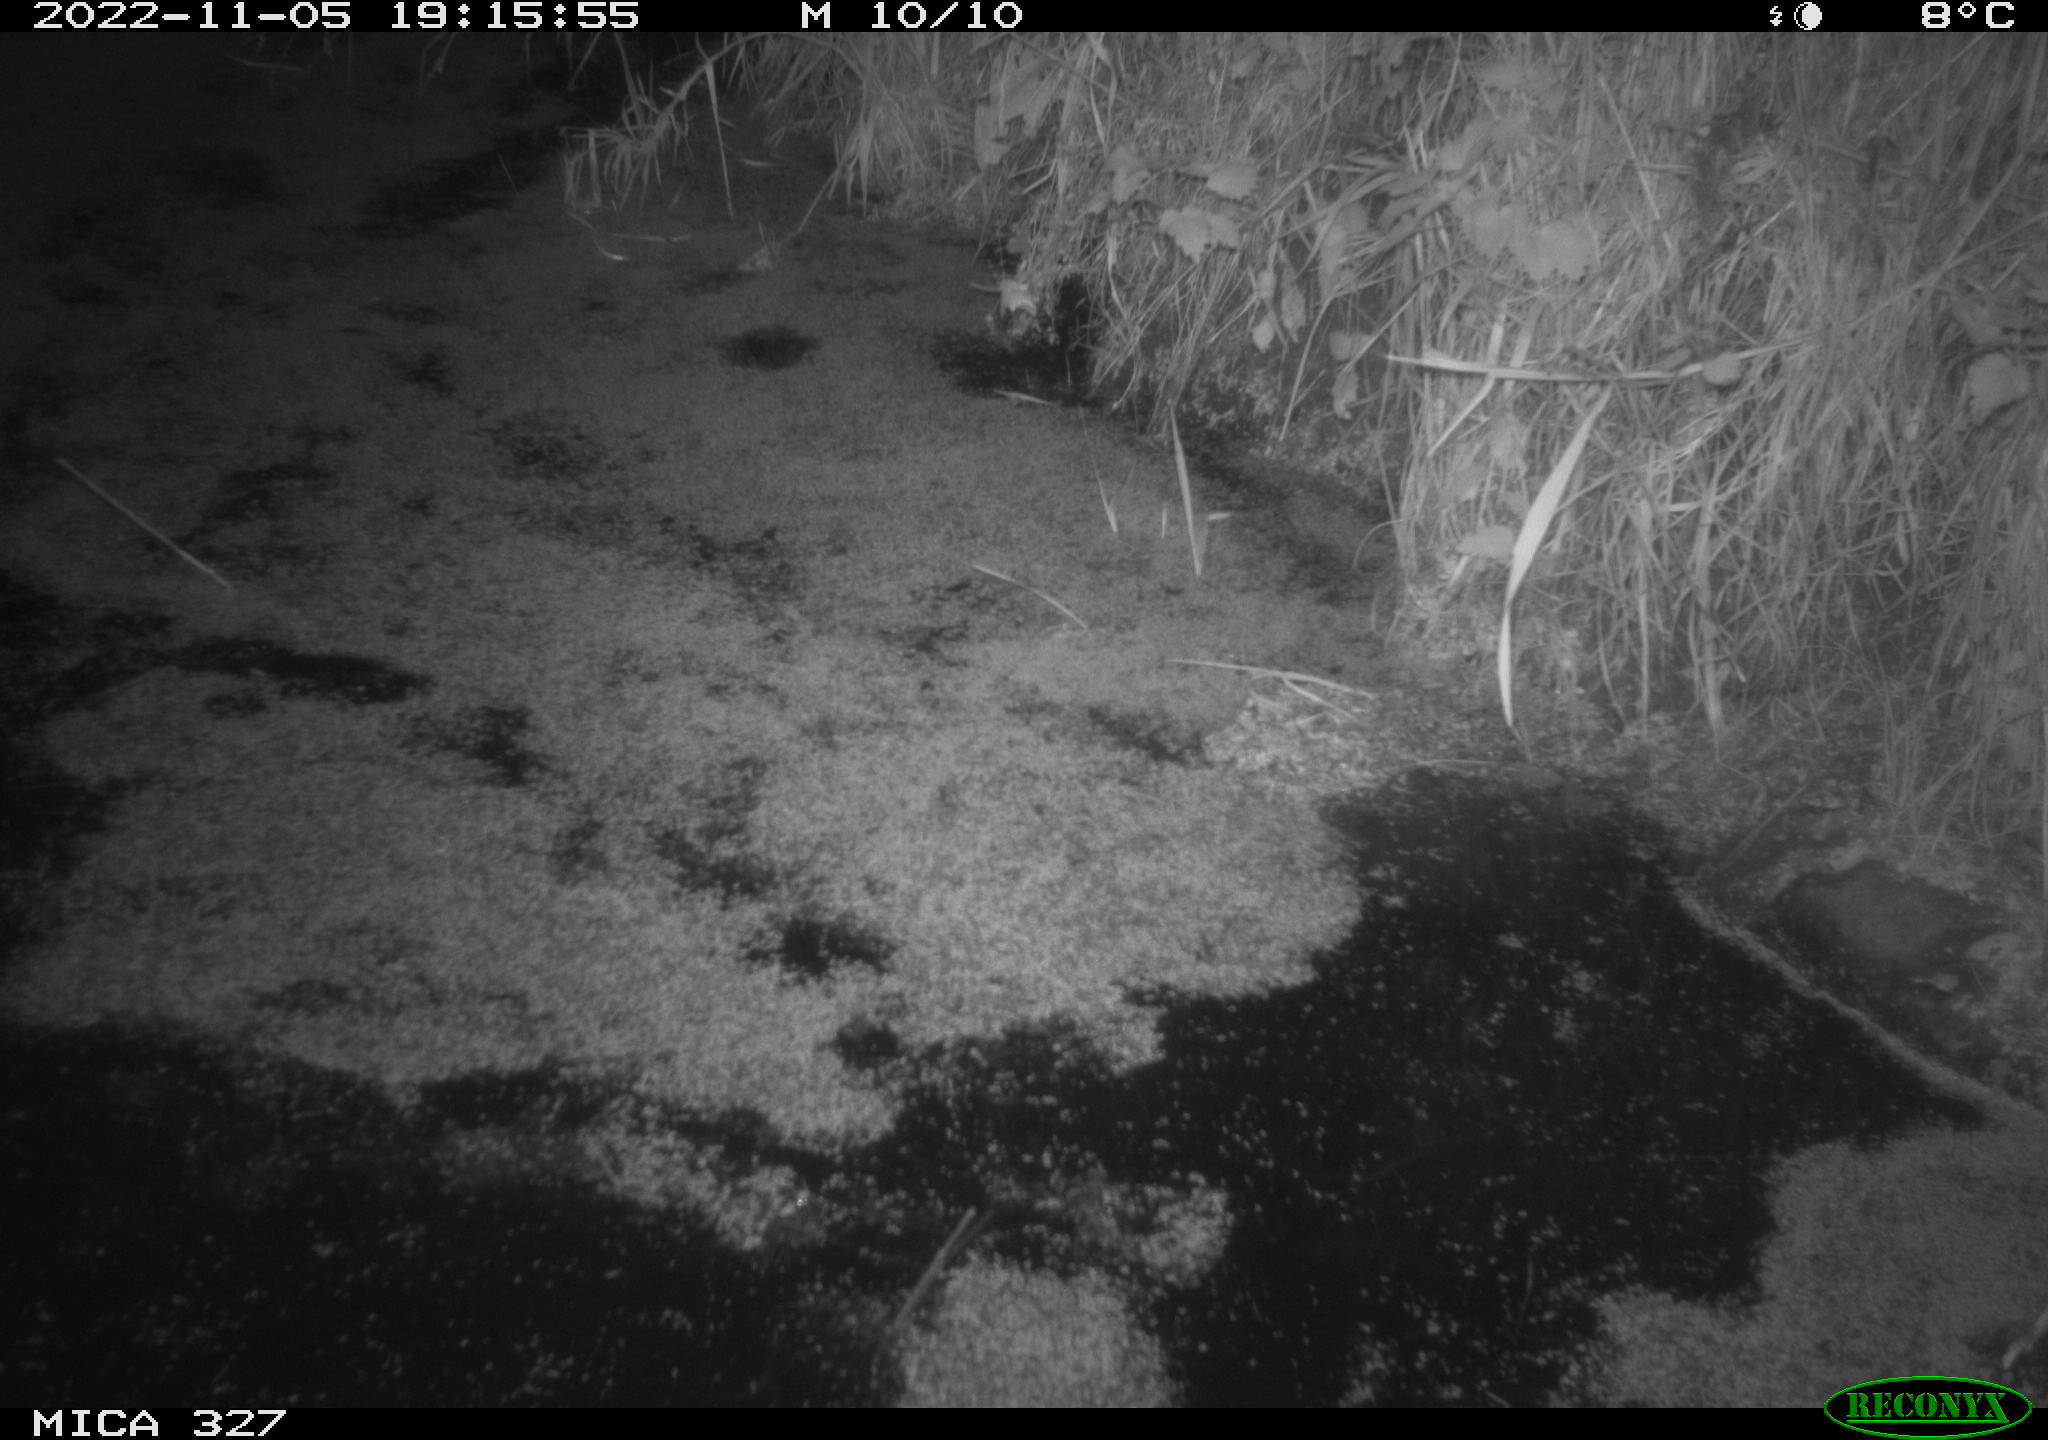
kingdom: Animalia
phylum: Chordata
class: Mammalia
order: Rodentia
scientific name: Rodentia
